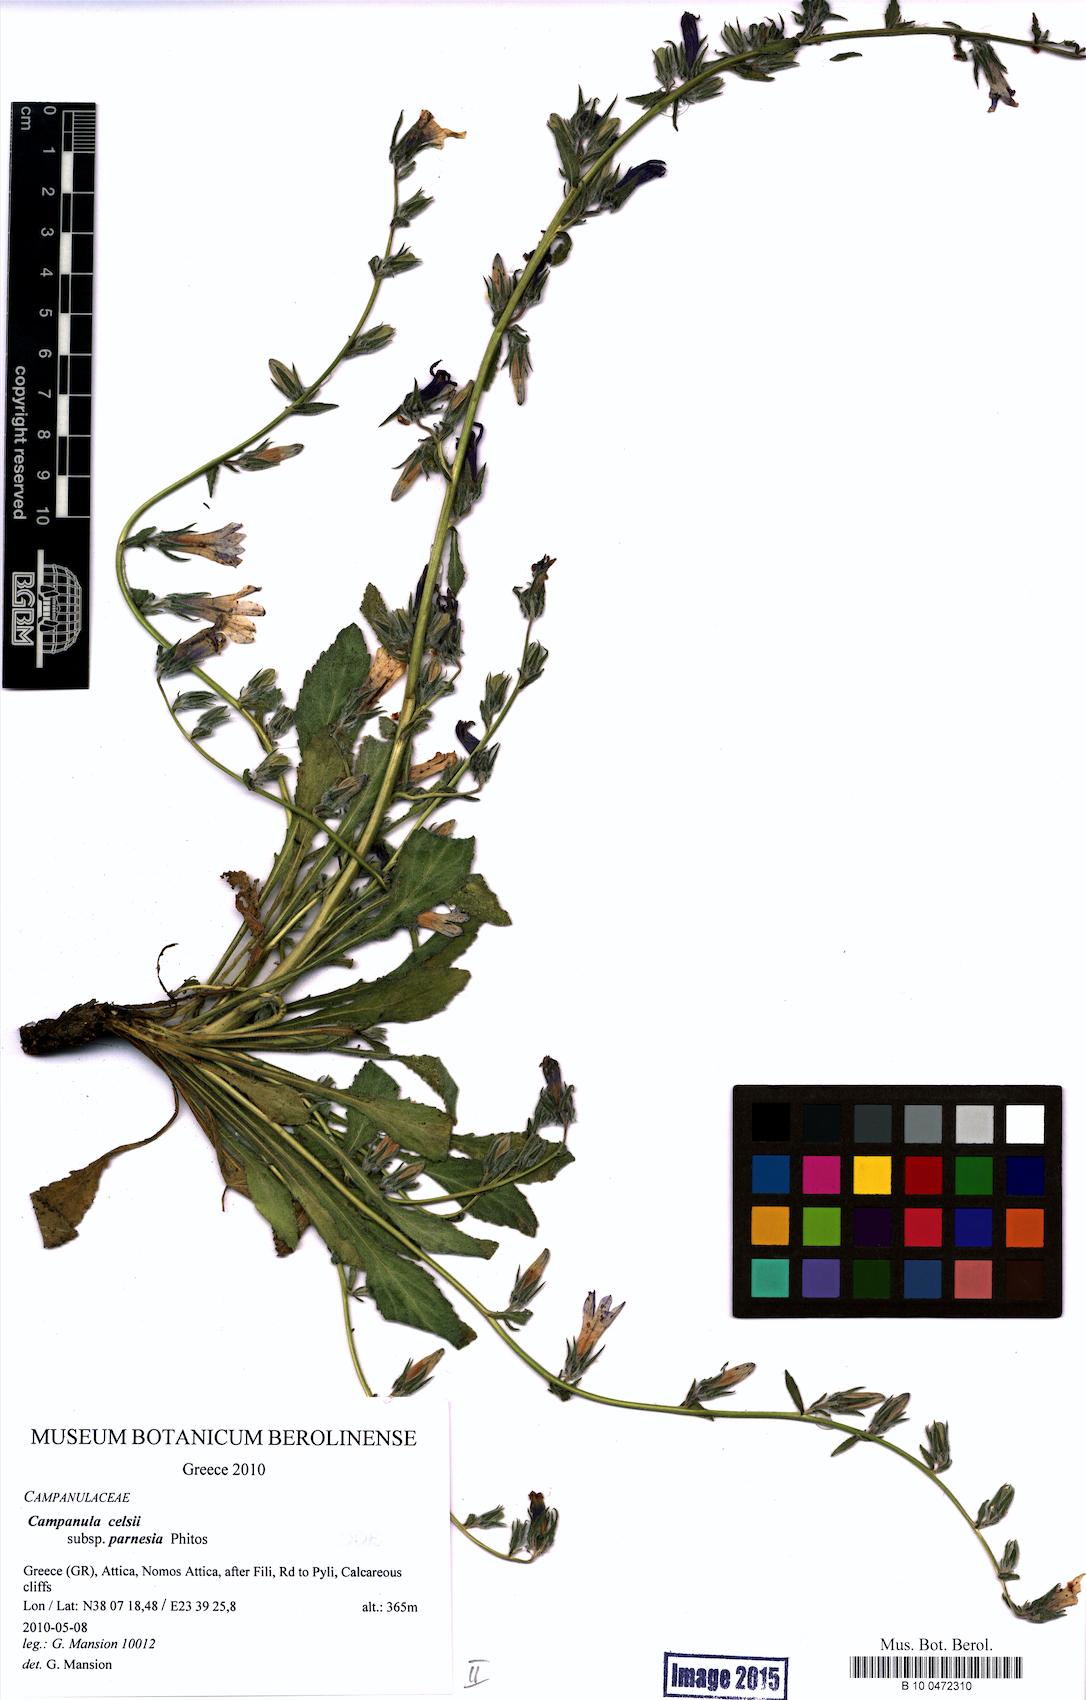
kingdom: Plantae
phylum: Tracheophyta
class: Magnoliopsida
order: Asterales
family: Campanulaceae
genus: Campanula
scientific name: Campanula celsii
